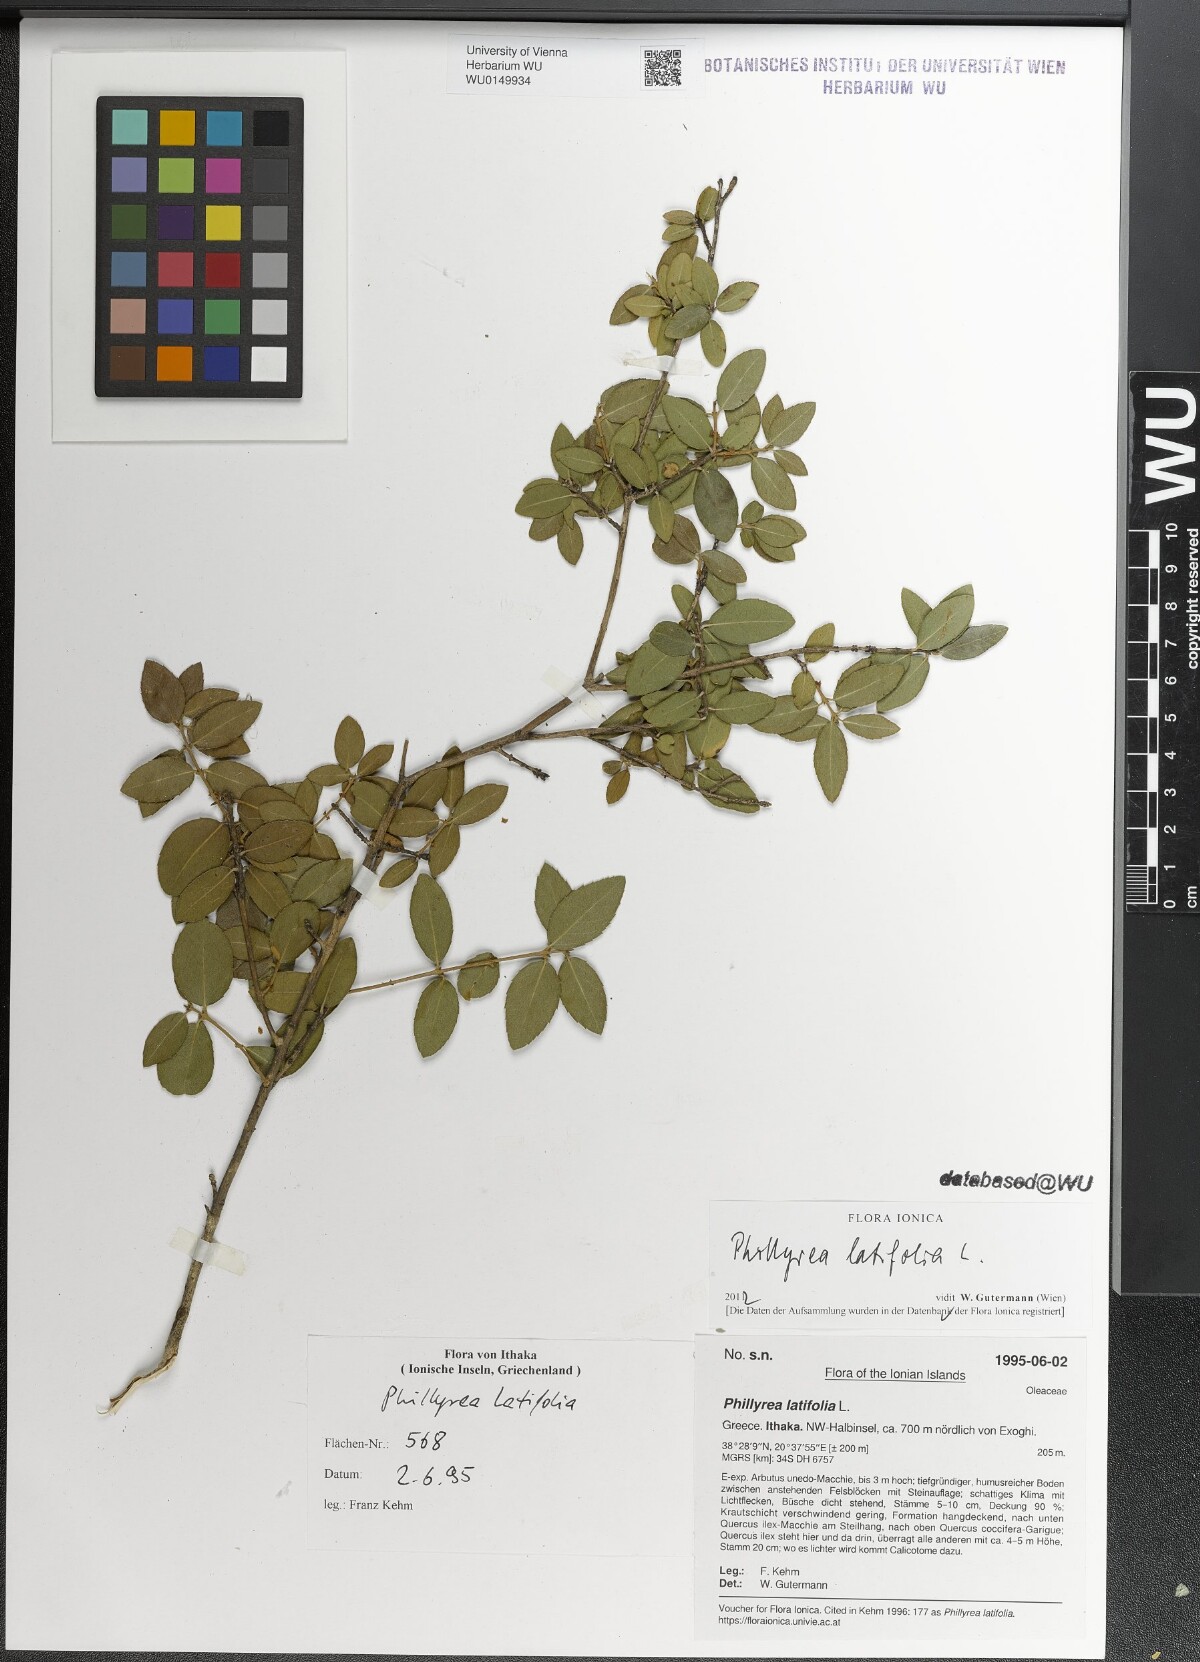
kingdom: Plantae
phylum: Tracheophyta
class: Magnoliopsida
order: Lamiales
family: Oleaceae
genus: Phillyrea
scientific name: Phillyrea latifolia
